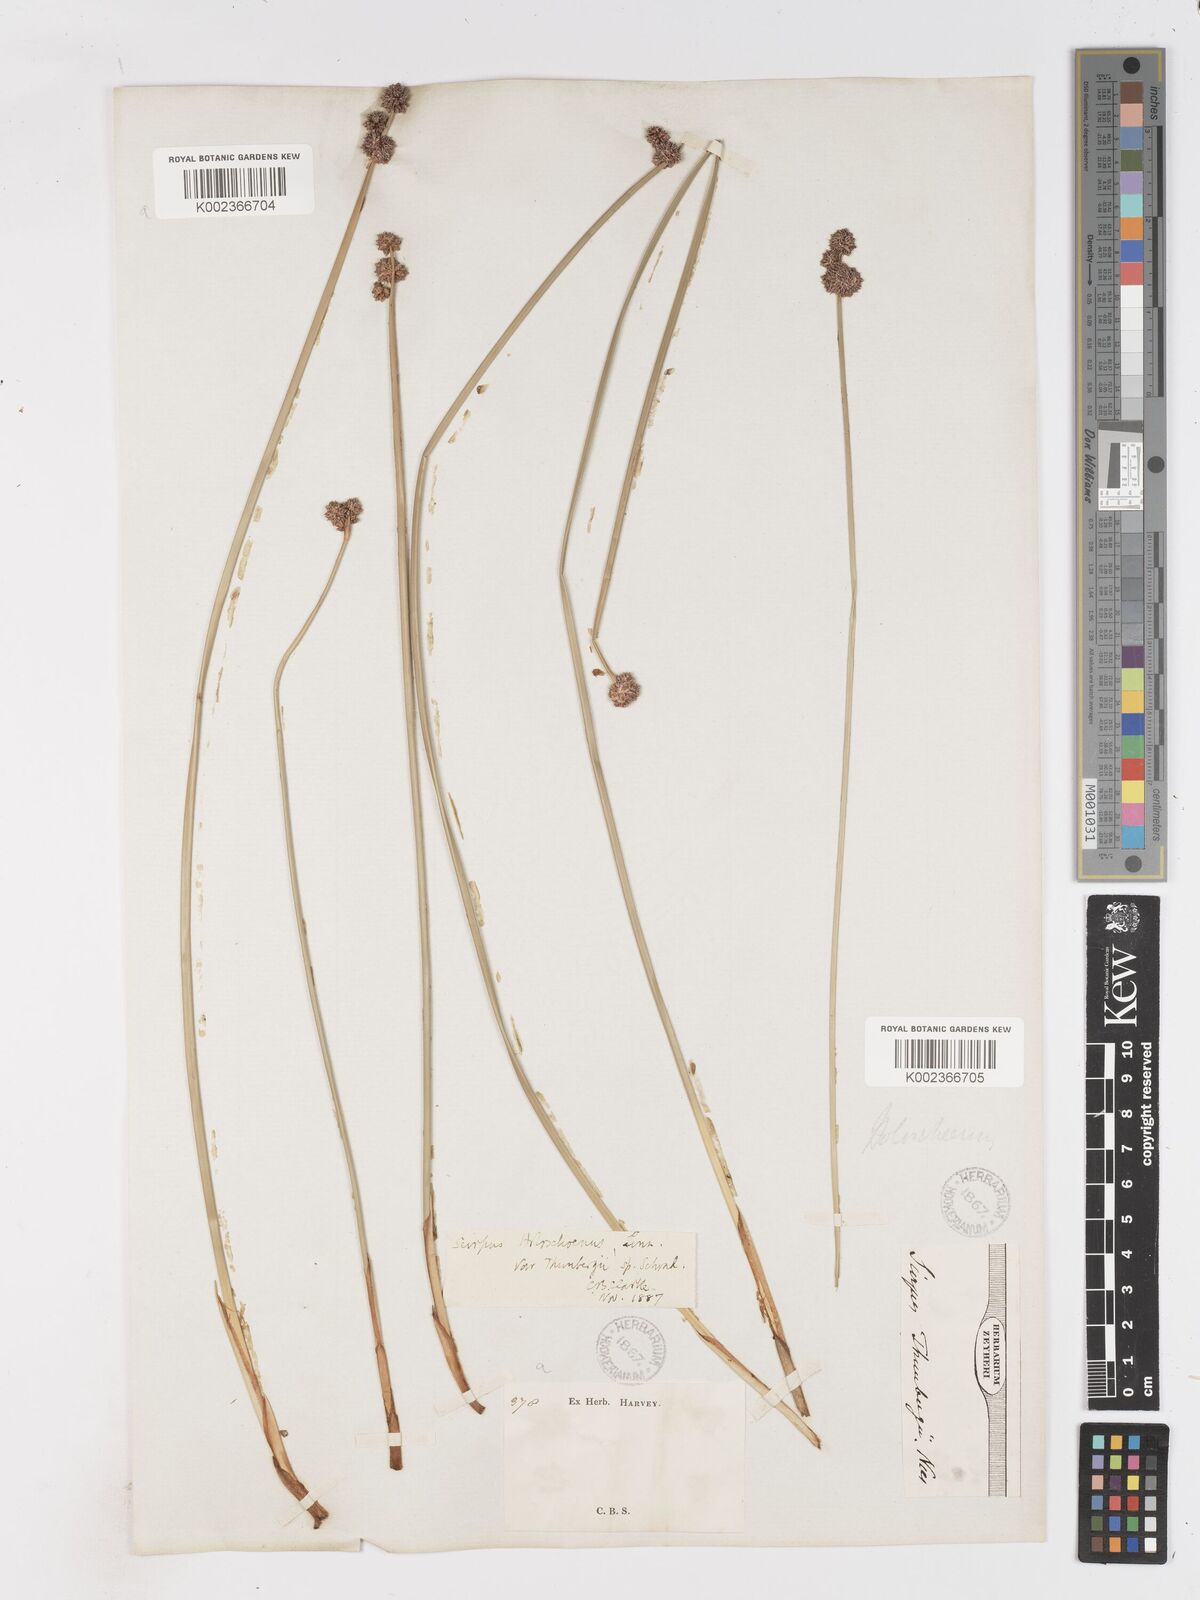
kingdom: Plantae
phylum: Tracheophyta
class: Liliopsida
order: Poales
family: Cyperaceae
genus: Scirpoides
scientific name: Scirpoides holoschoenus
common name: Round-headed club-rush
